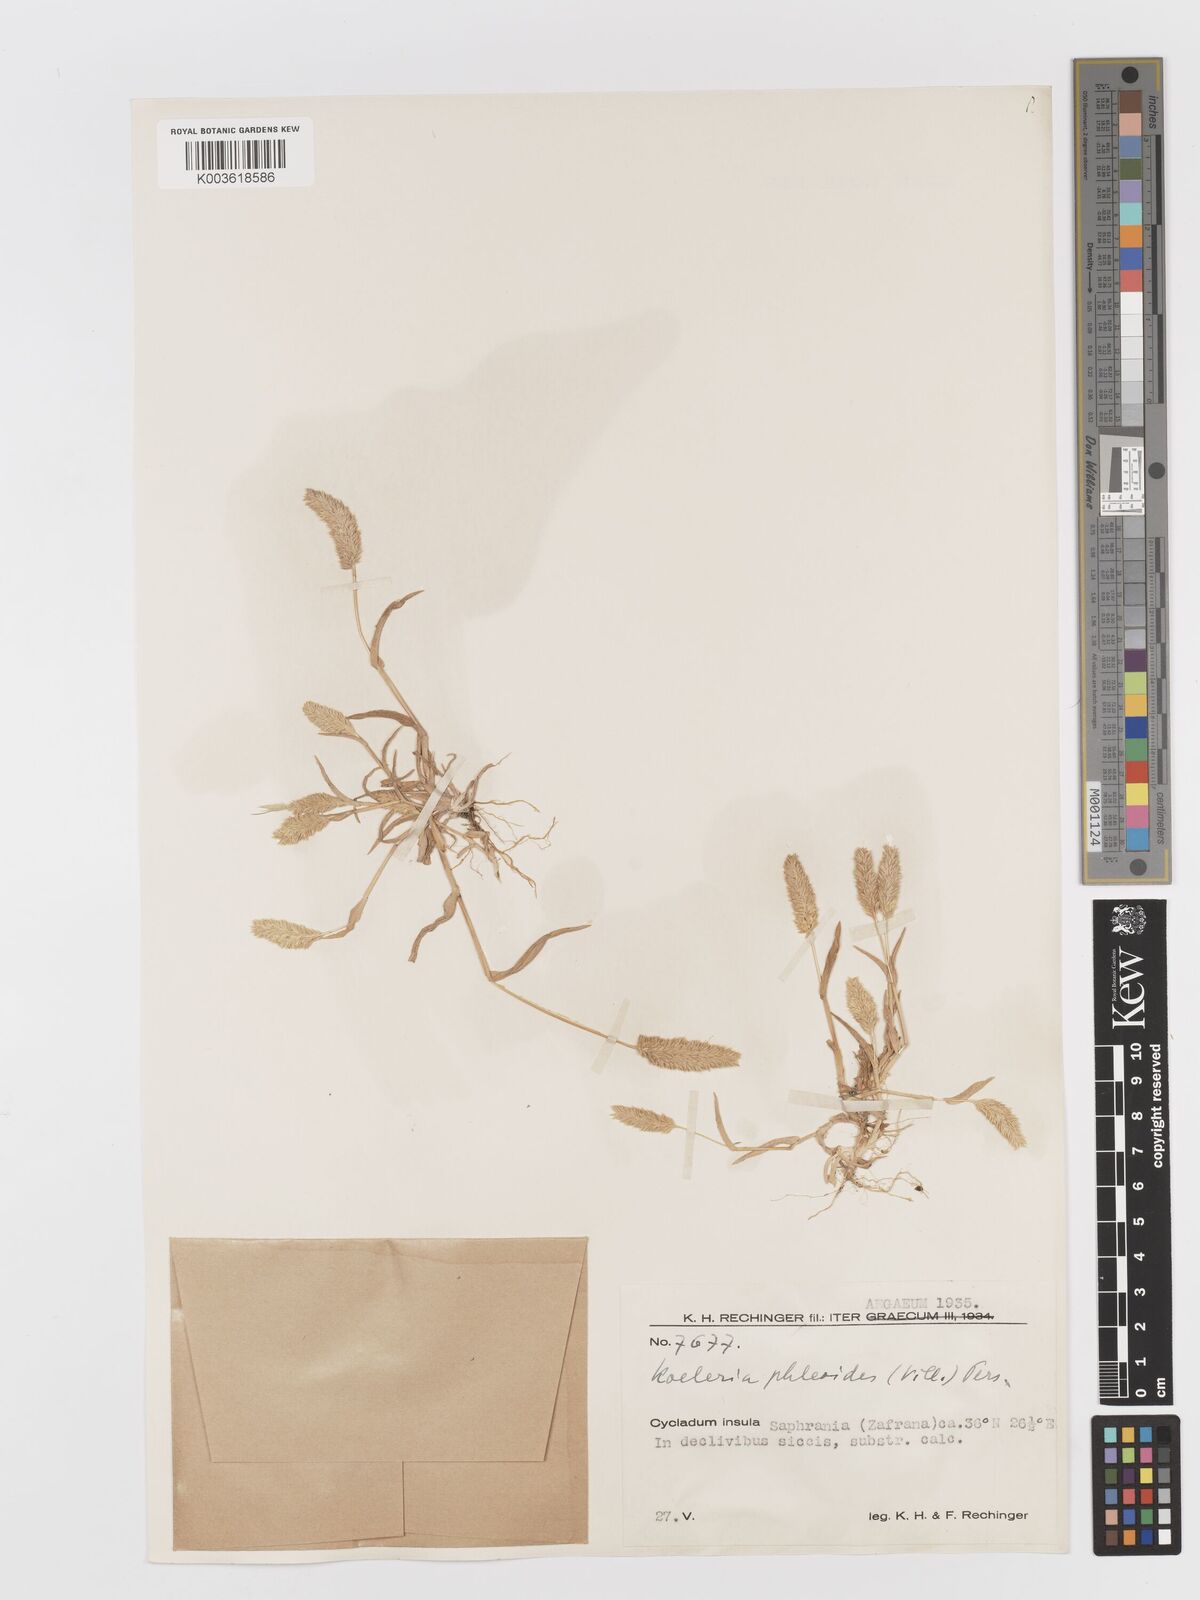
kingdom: Plantae
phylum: Tracheophyta
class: Liliopsida
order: Poales
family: Poaceae
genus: Rostraria
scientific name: Rostraria cristata
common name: Mediterranean hair-grass
